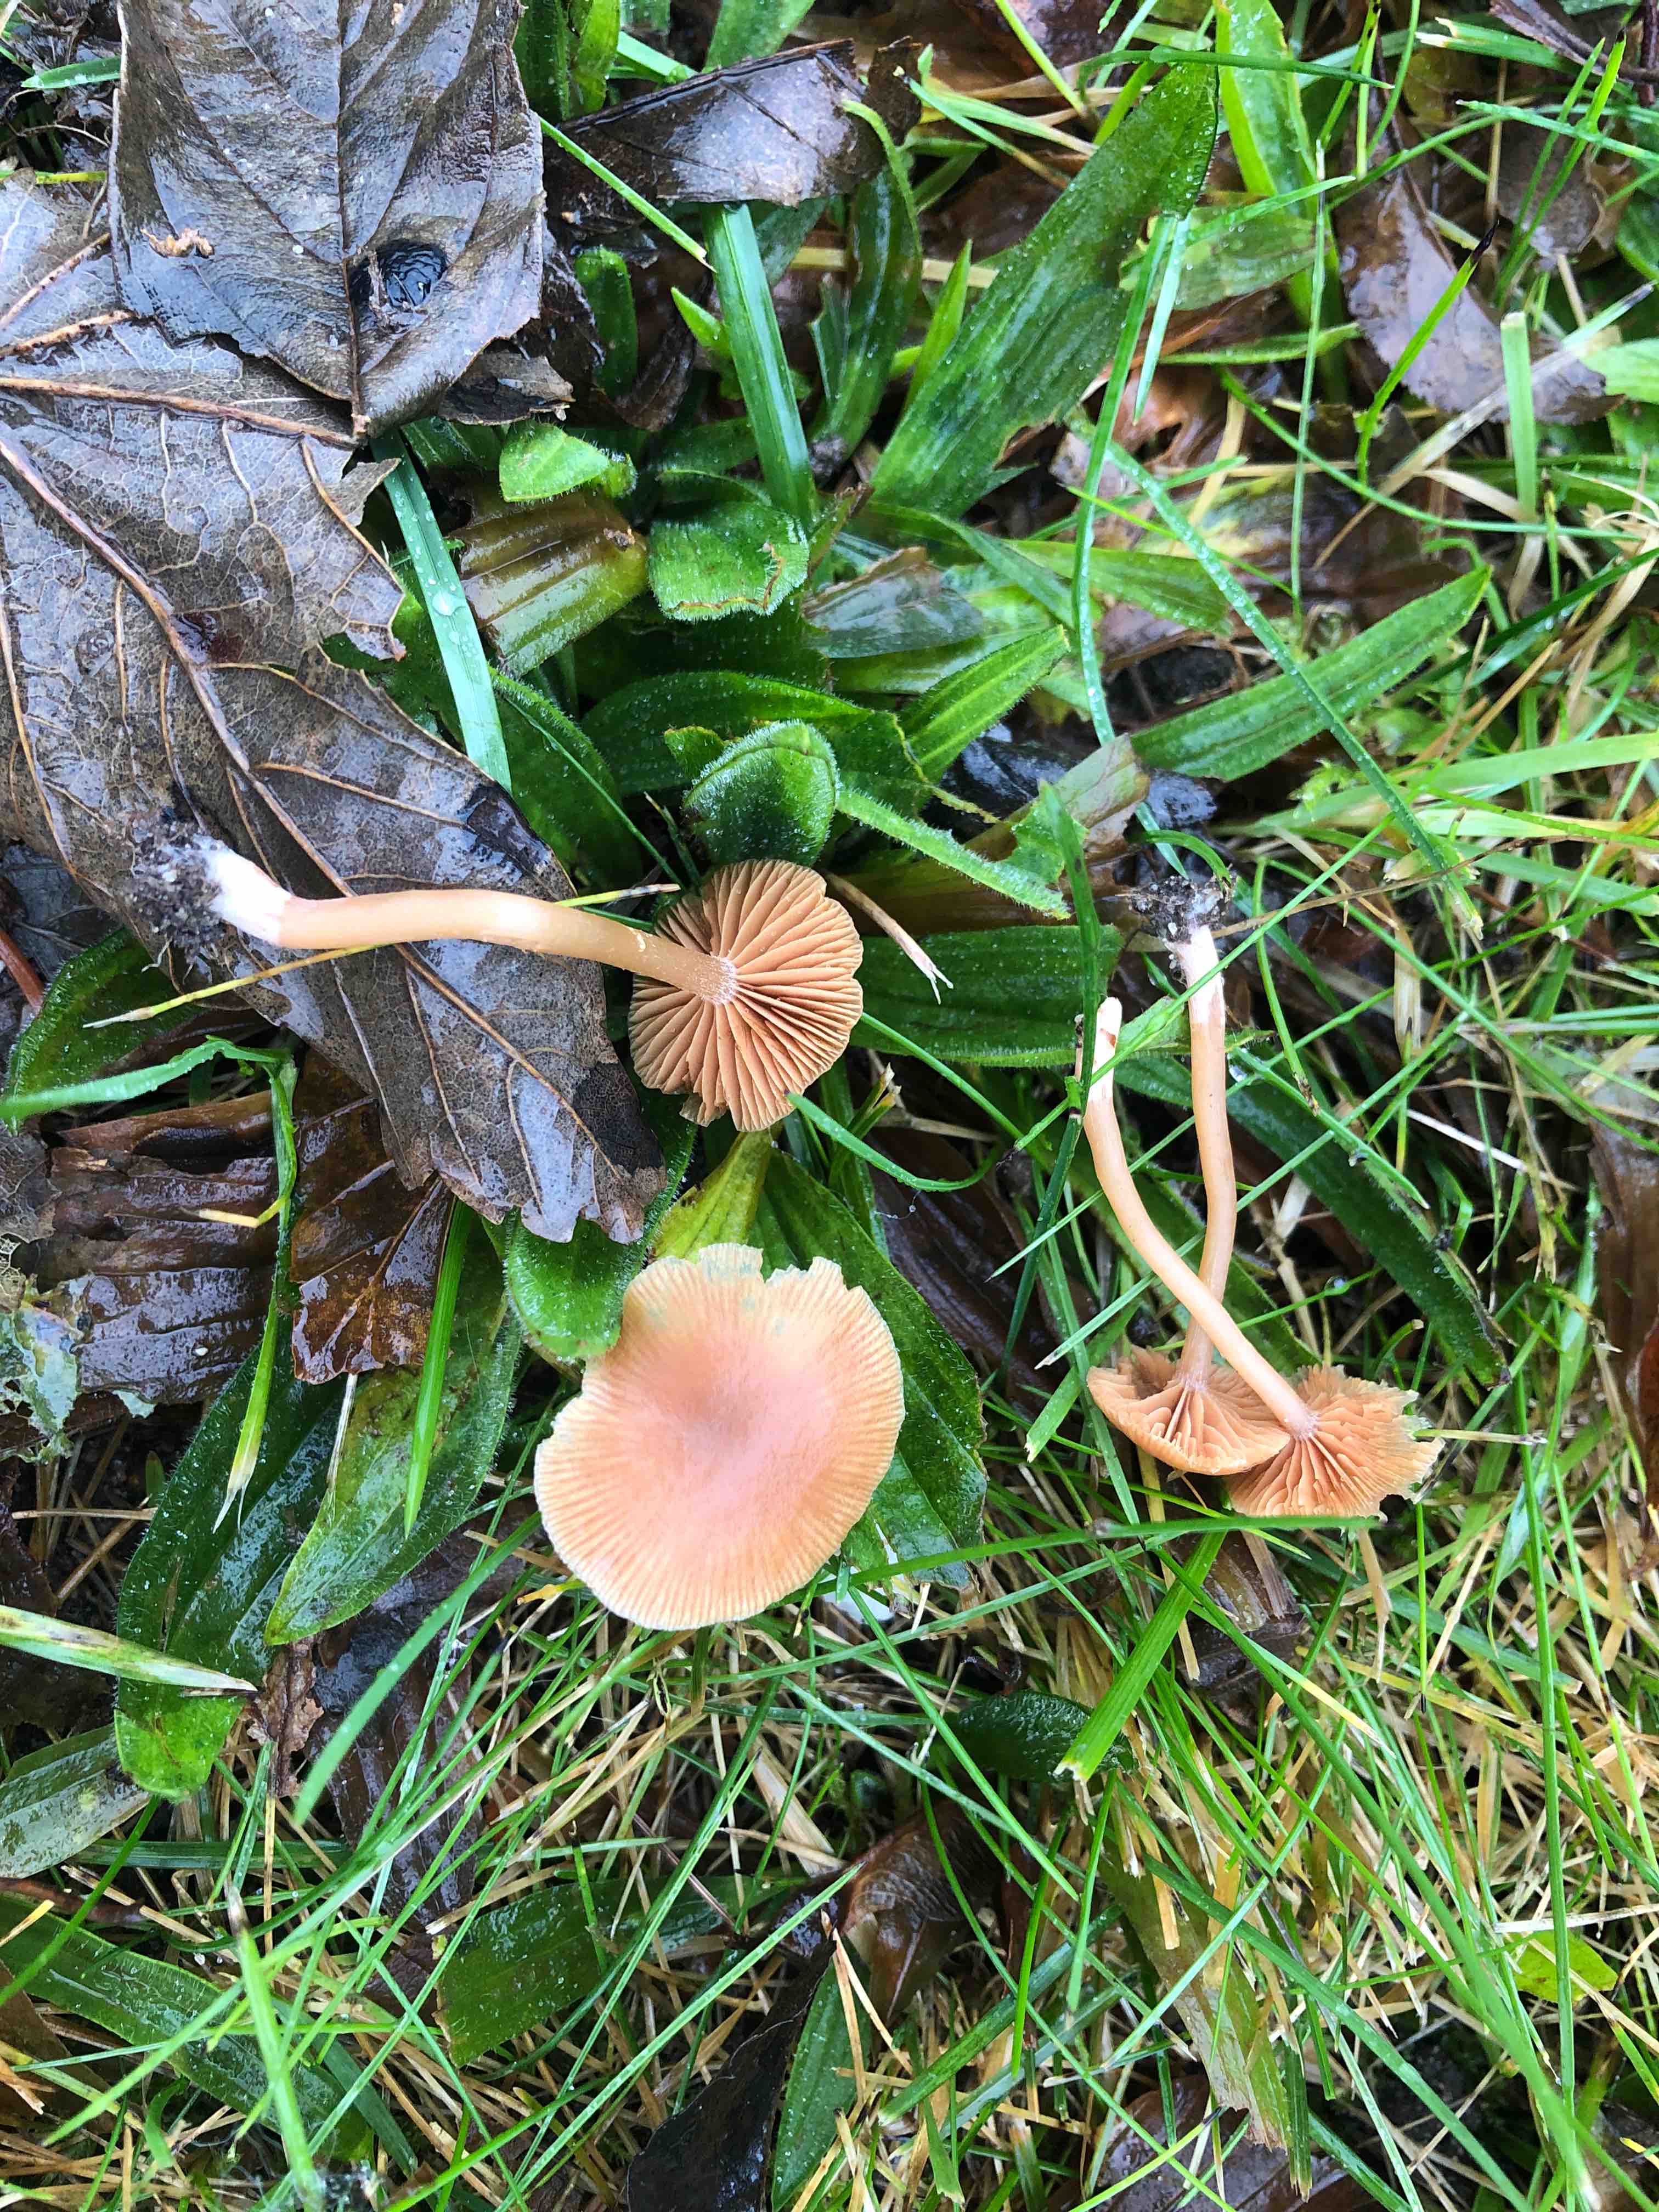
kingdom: Fungi
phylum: Basidiomycota
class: Agaricomycetes
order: Agaricales
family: Tubariaceae
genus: Tubaria
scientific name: Tubaria furfuracea
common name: kliddet fnughat
